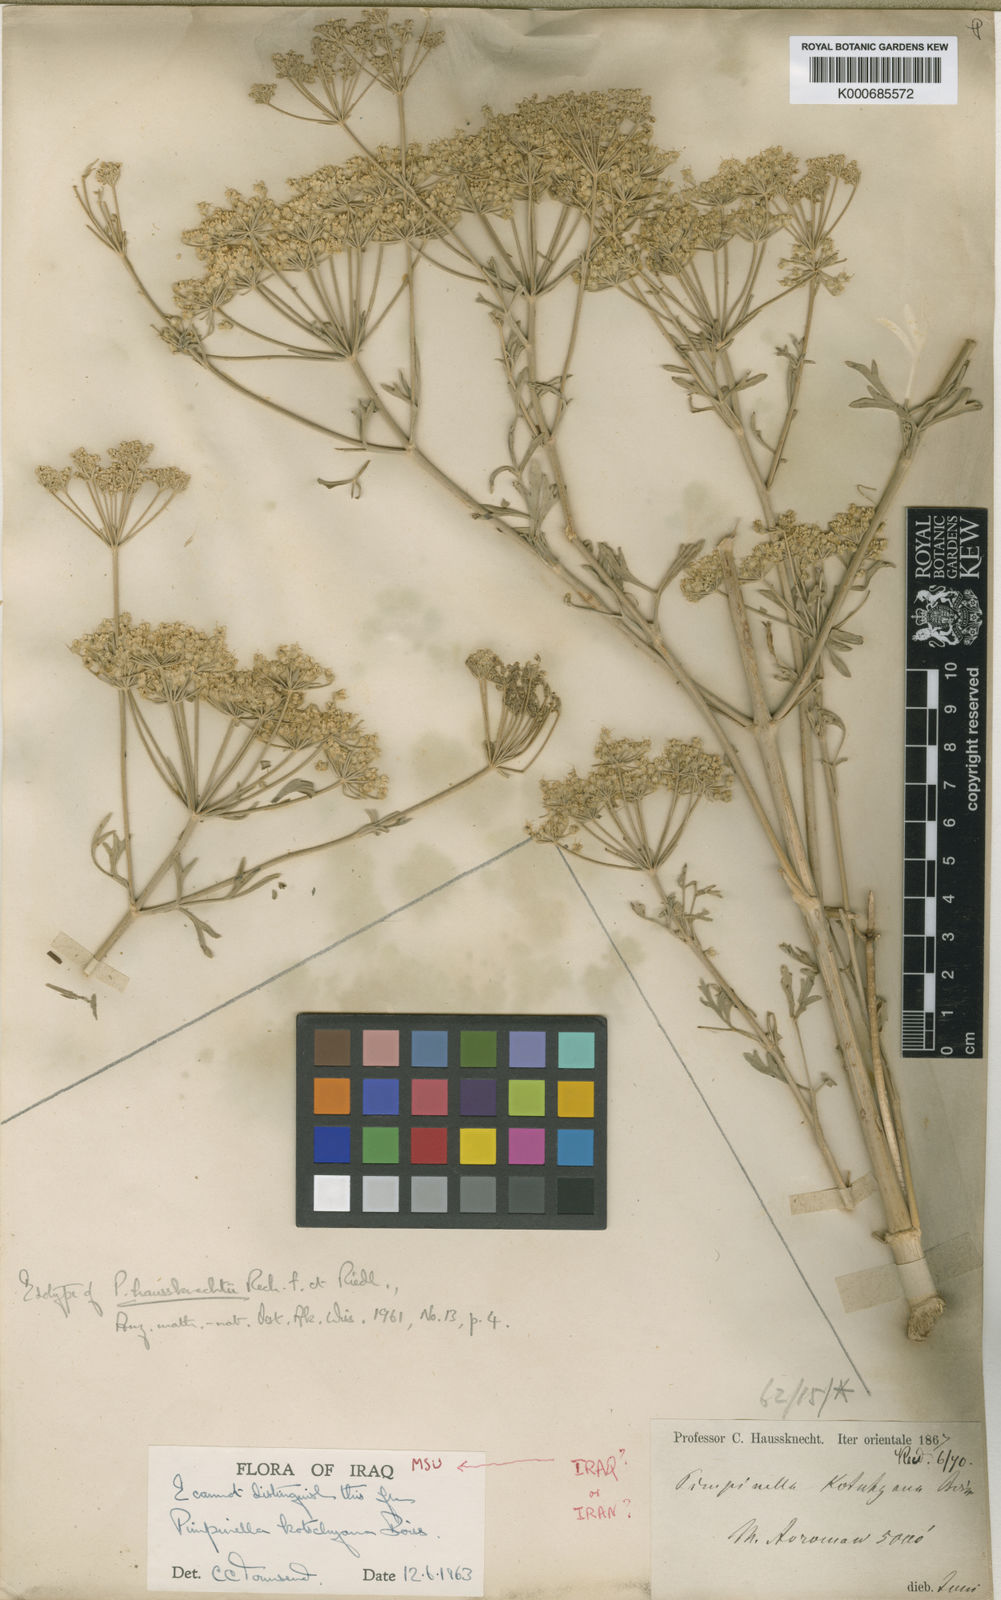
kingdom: Plantae
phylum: Tracheophyta
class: Magnoliopsida
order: Apiales
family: Apiaceae
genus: Pimpinella
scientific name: Pimpinella kotschyana
